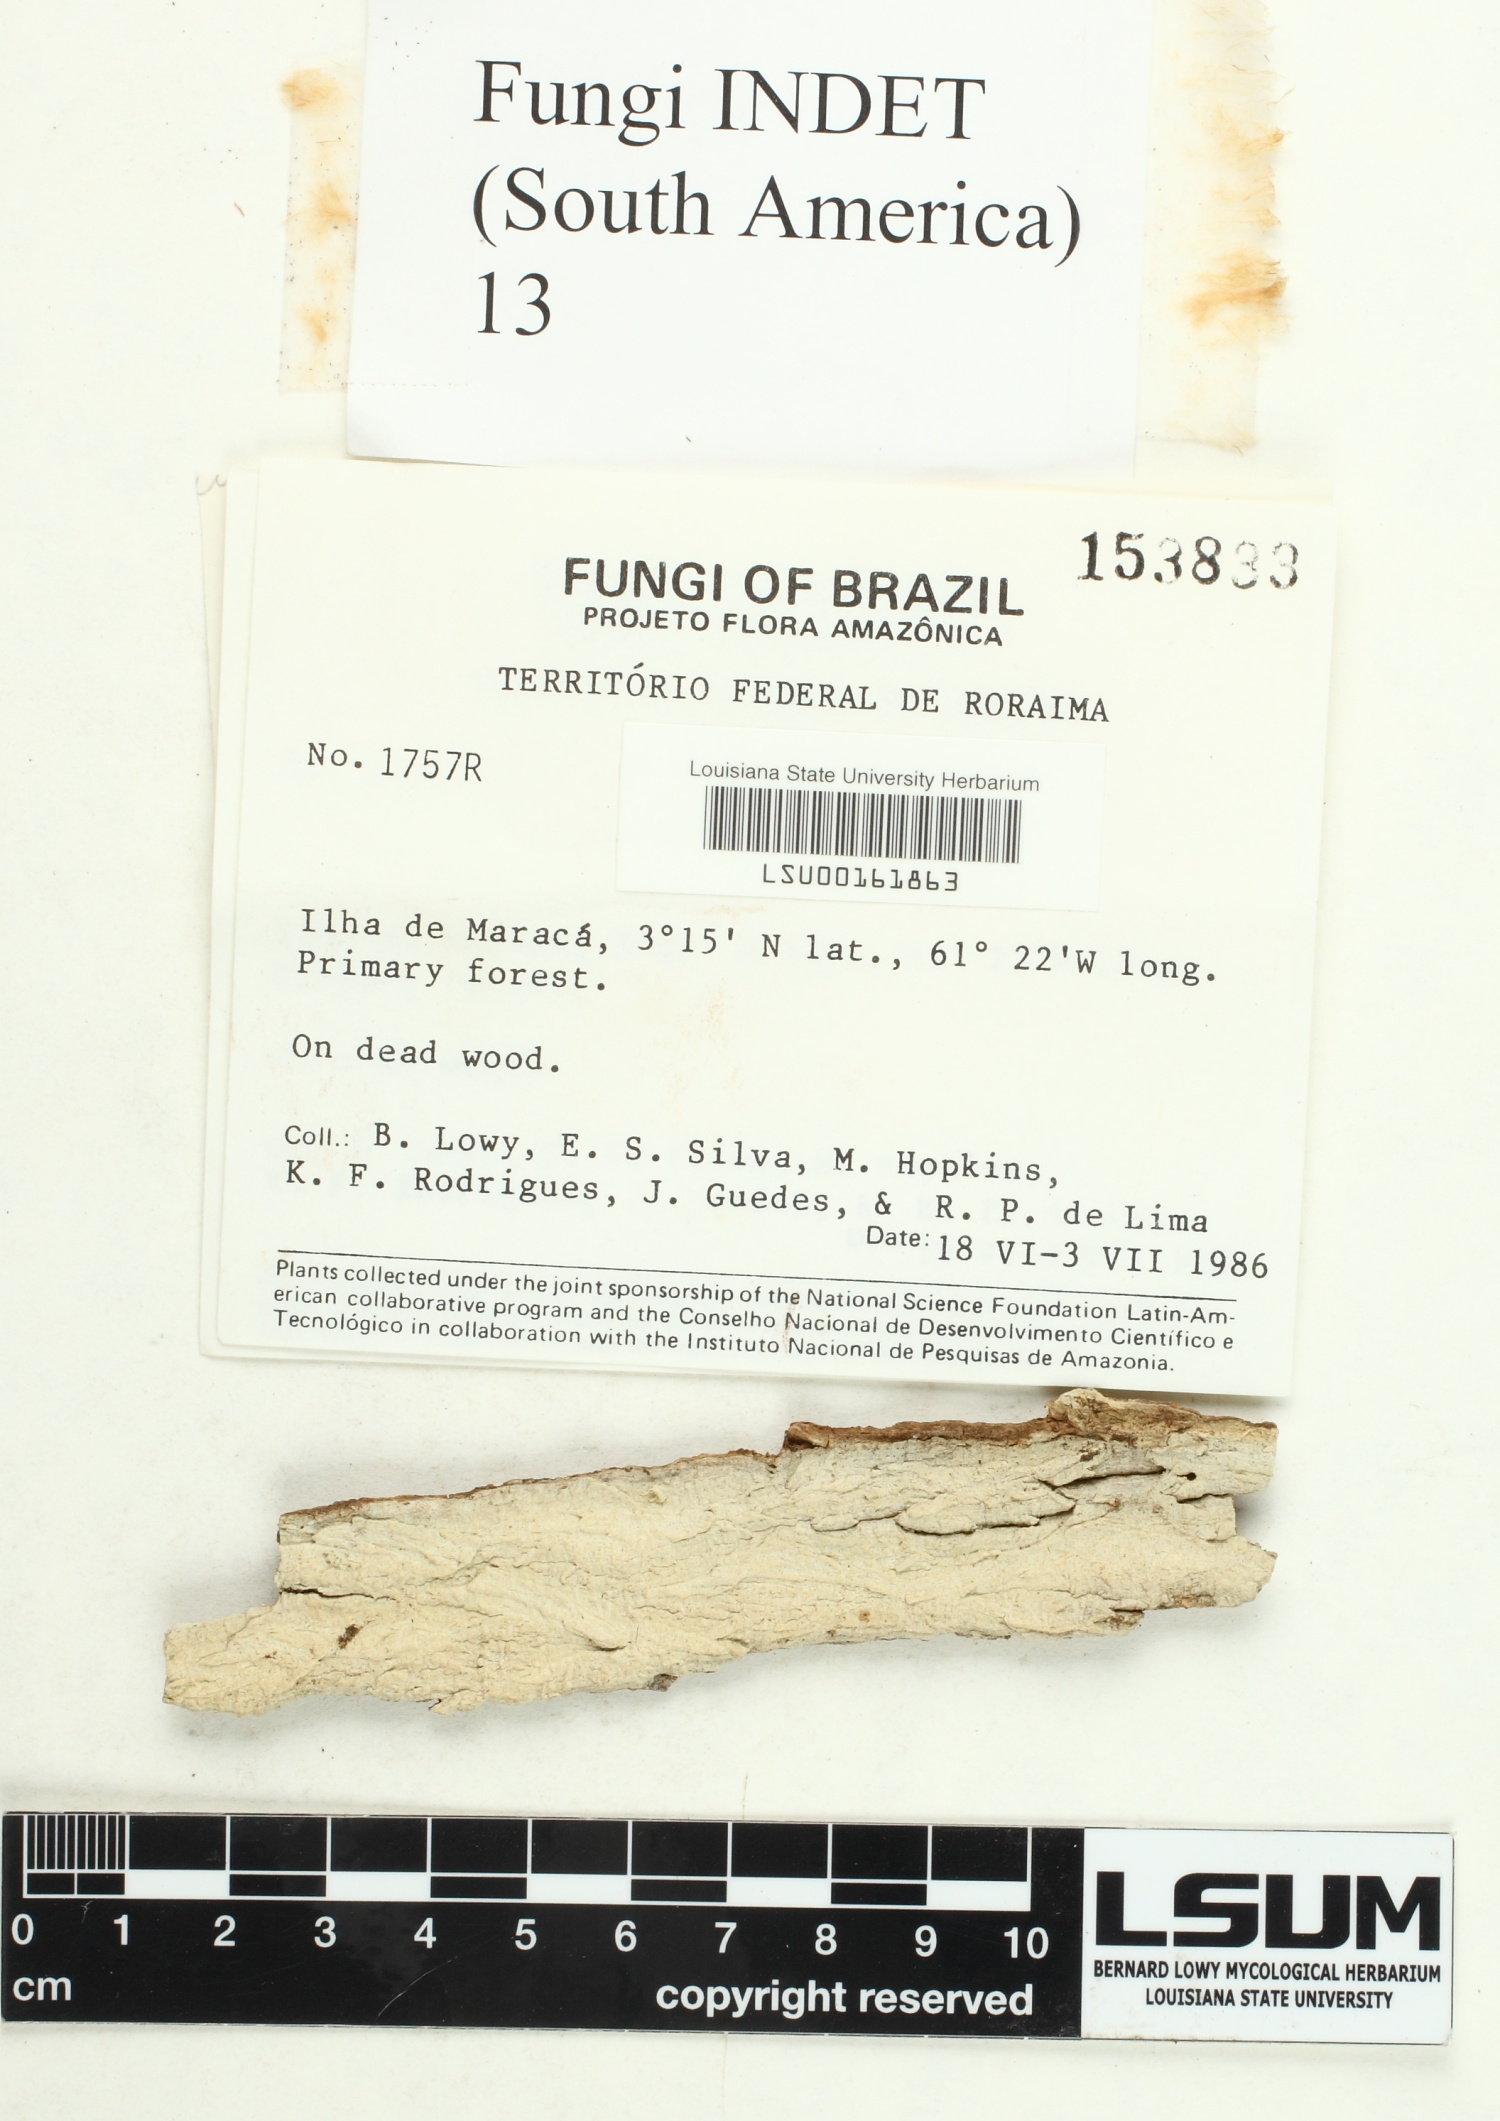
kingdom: Fungi
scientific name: Fungi
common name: Fungi
